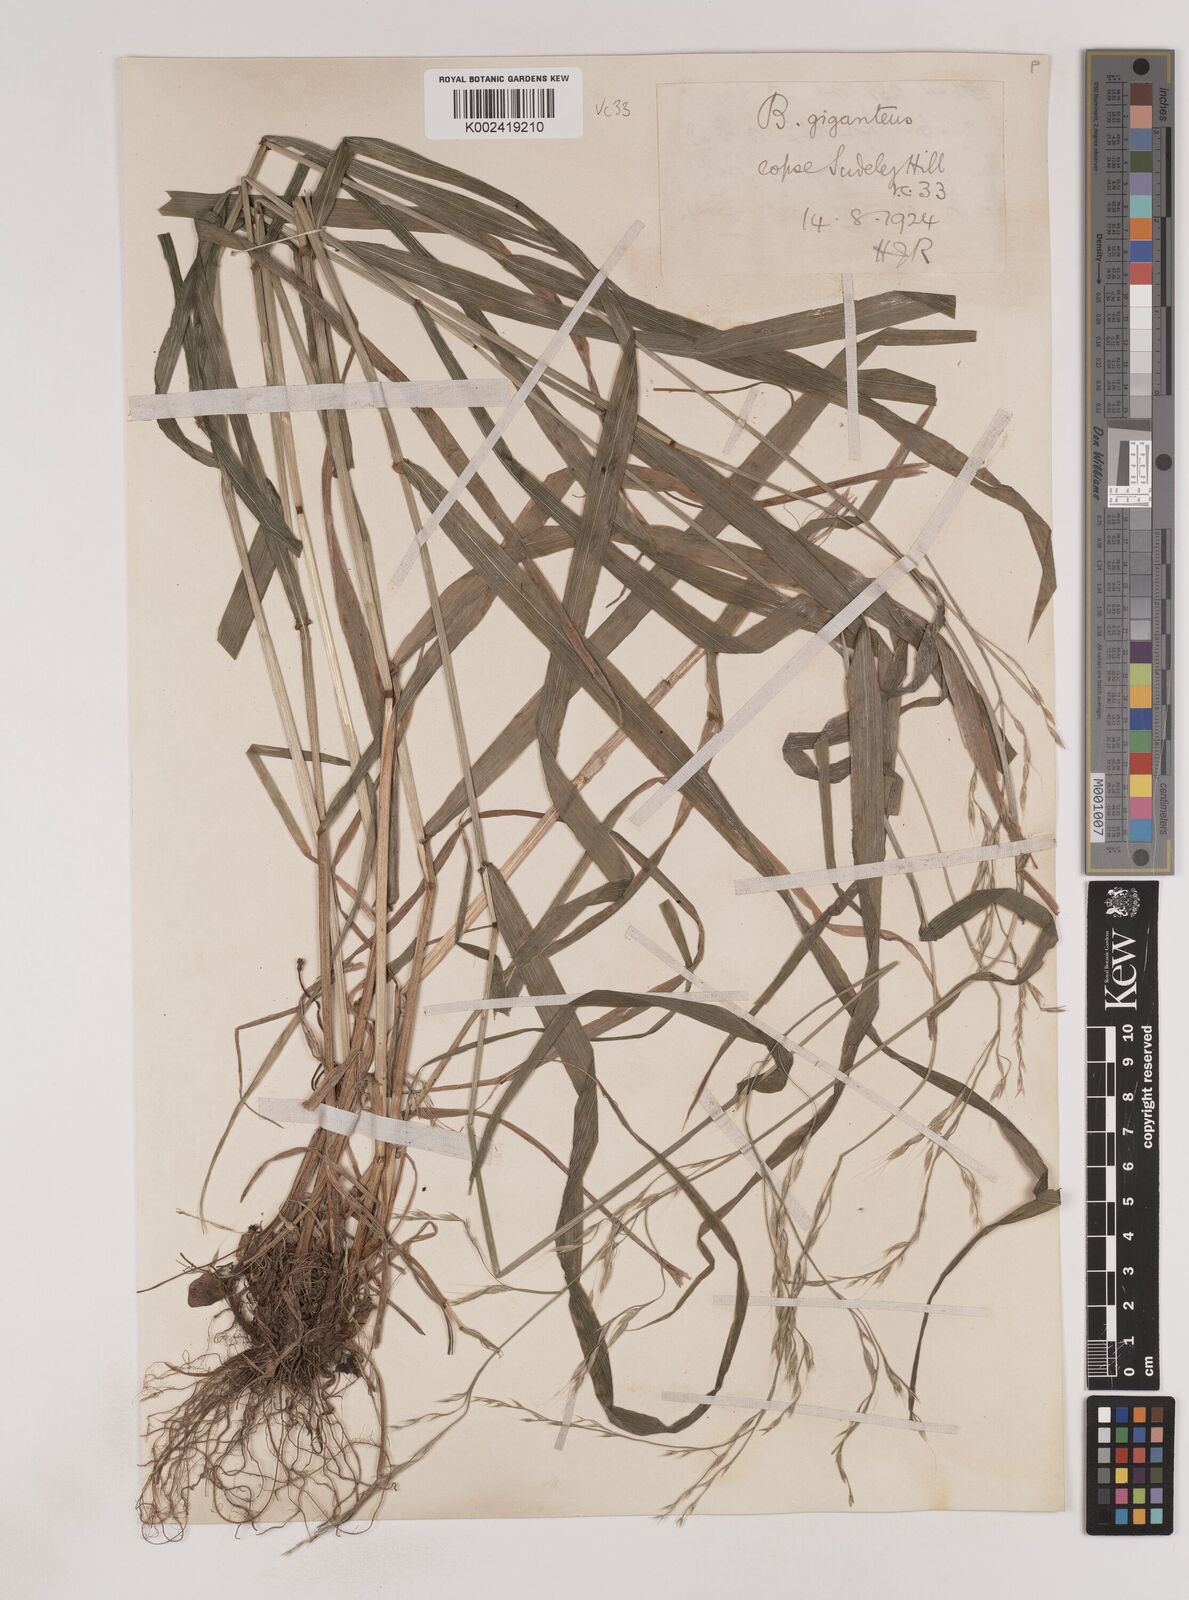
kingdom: Plantae
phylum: Tracheophyta
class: Liliopsida
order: Poales
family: Poaceae
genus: Lolium
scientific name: Lolium giganteum
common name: Giant fescue
